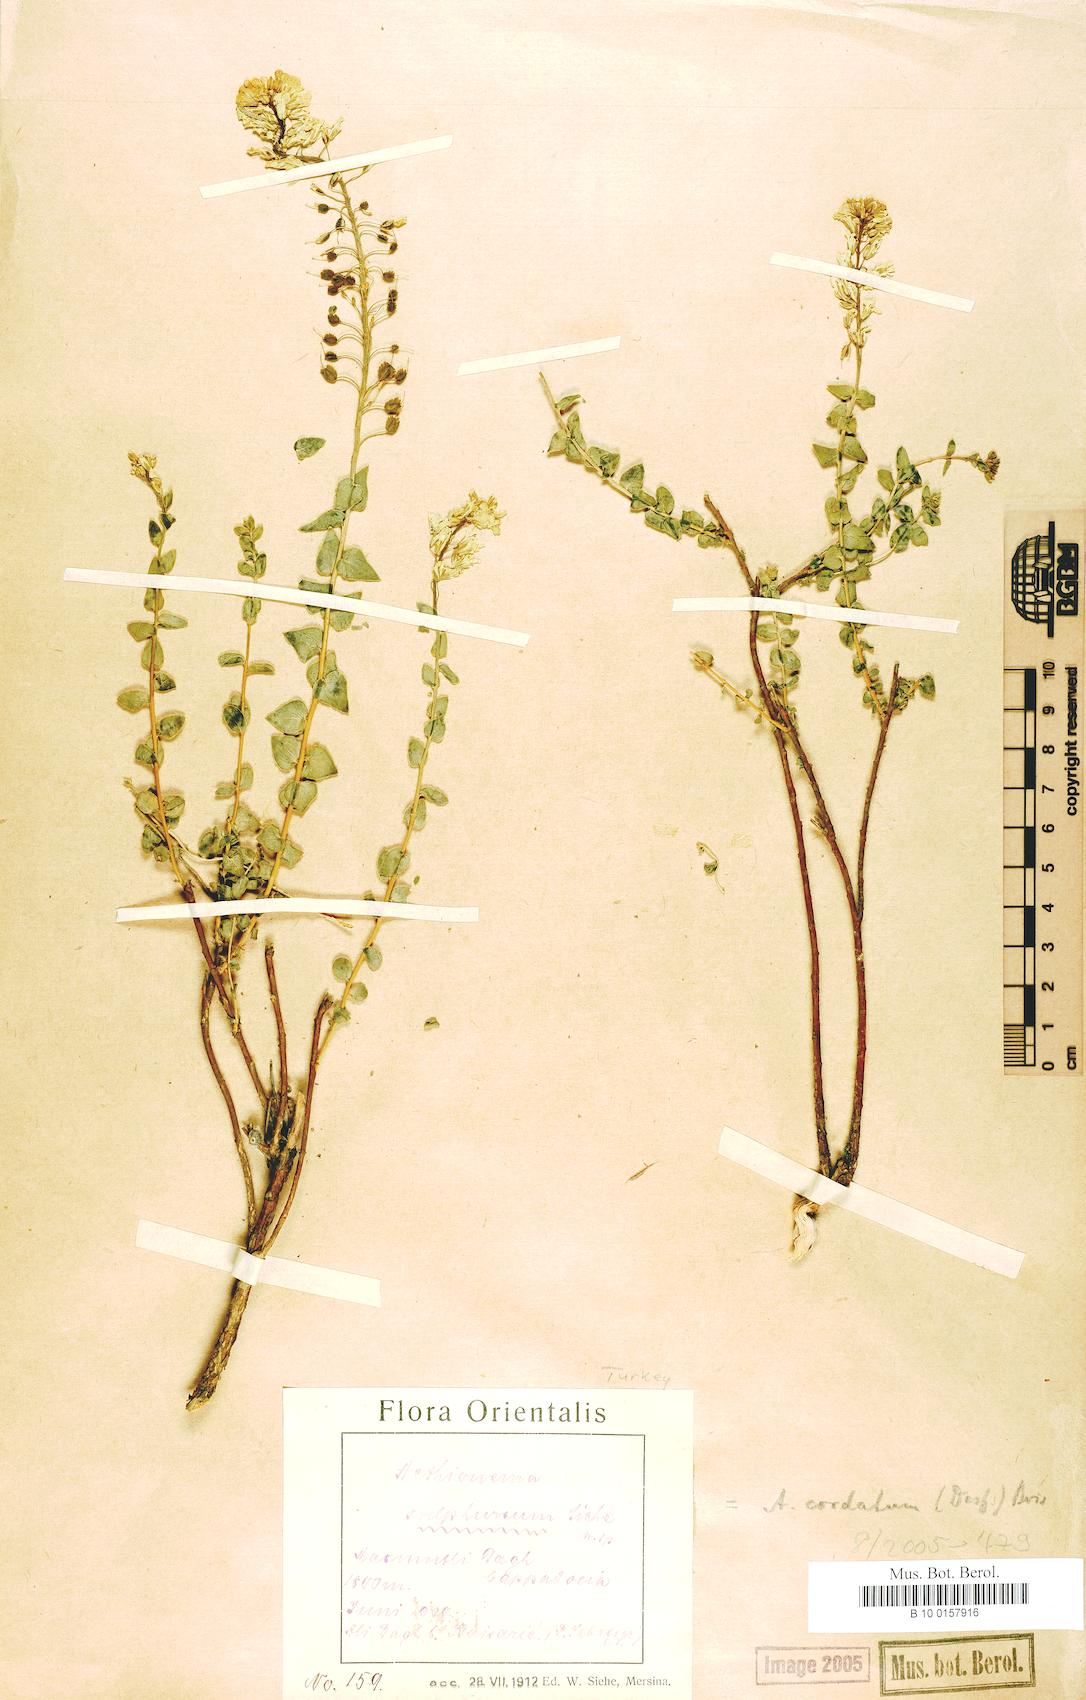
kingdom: Plantae
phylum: Tracheophyta
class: Magnoliopsida
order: Brassicales
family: Brassicaceae
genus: Aethionema
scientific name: Aethionema cordatum
